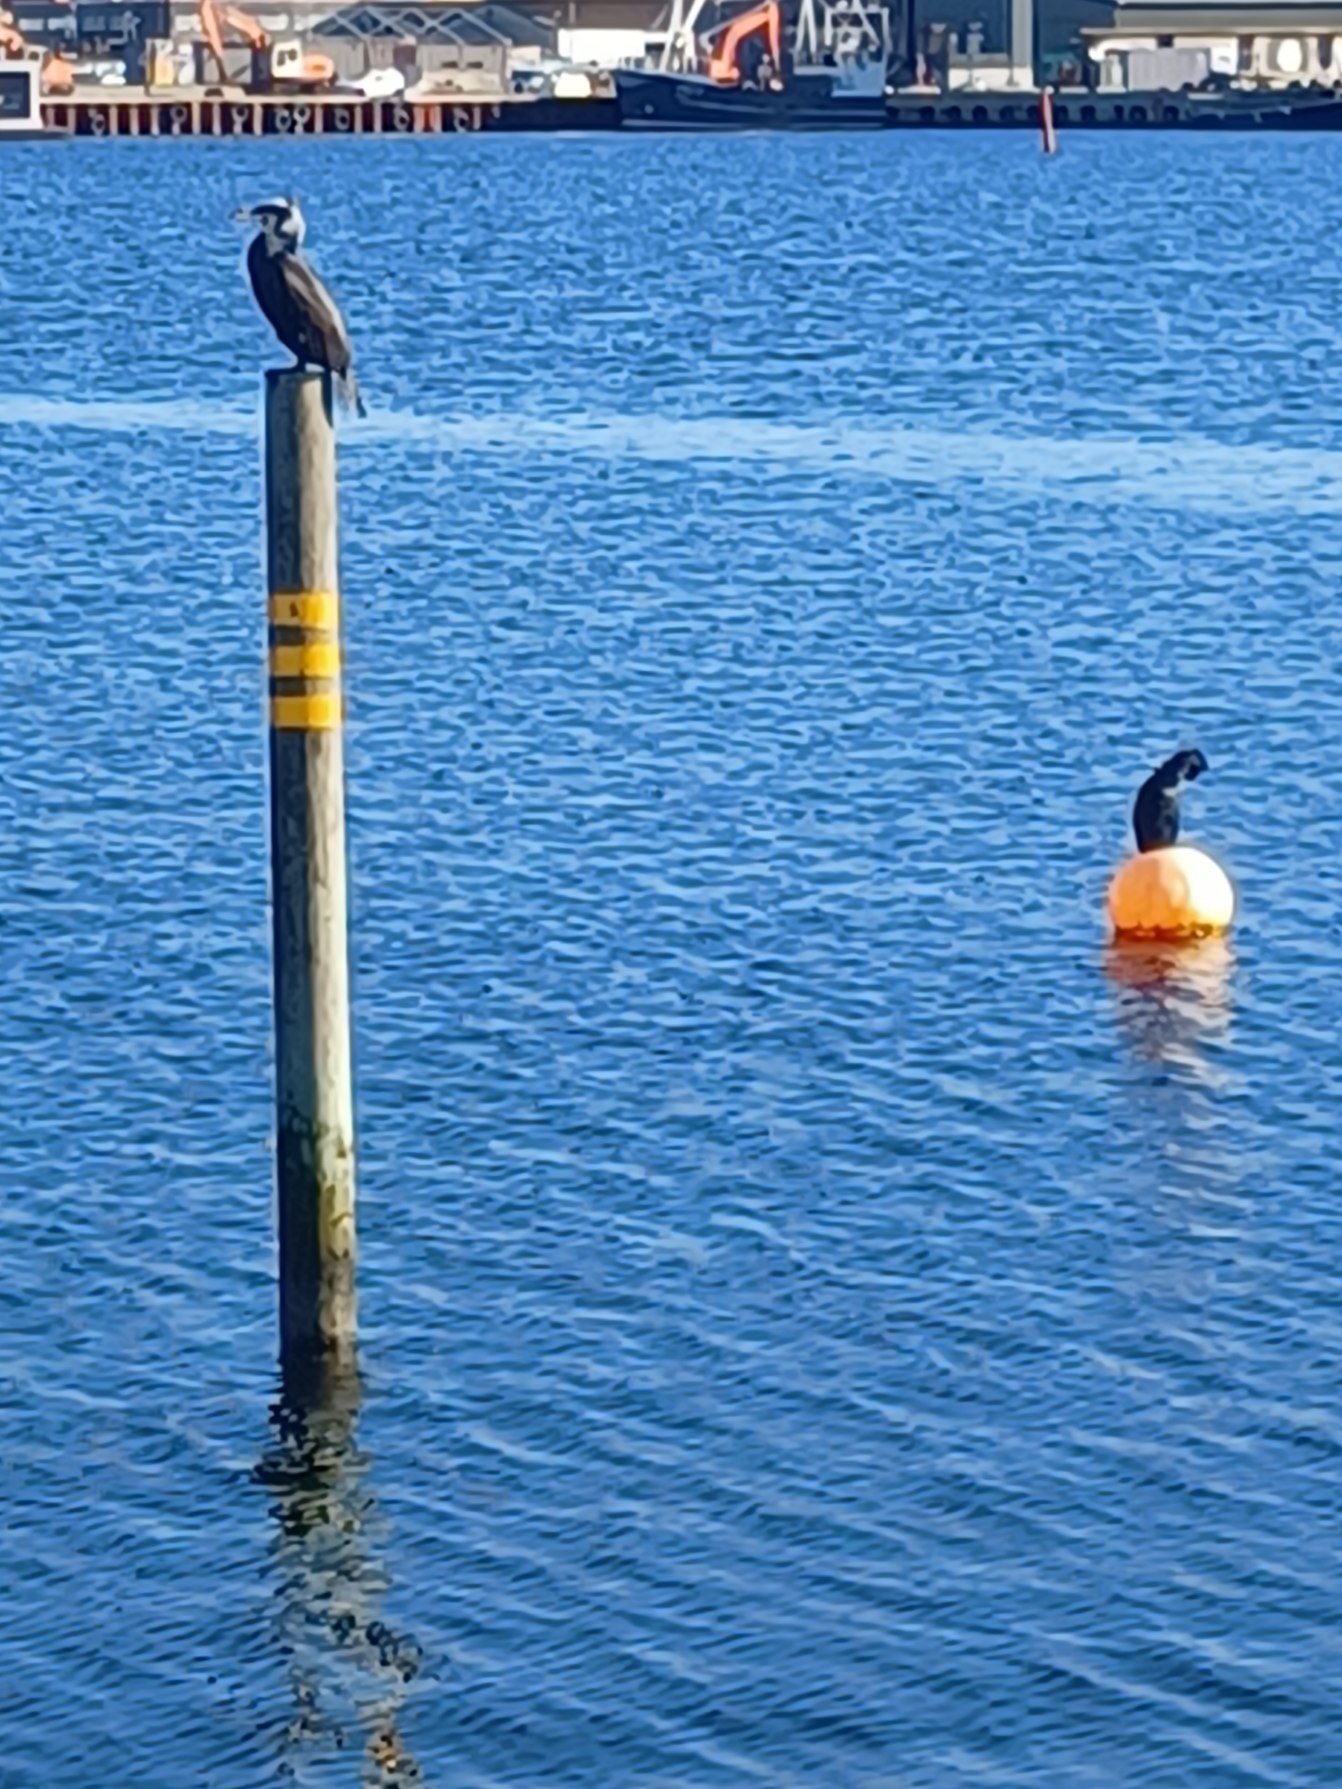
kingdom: Animalia
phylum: Chordata
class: Aves
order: Suliformes
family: Phalacrocoracidae
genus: Phalacrocorax
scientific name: Phalacrocorax carbo
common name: Skarv
